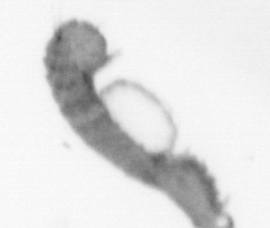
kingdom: Animalia
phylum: Annelida
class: Polychaeta
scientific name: Polychaeta
